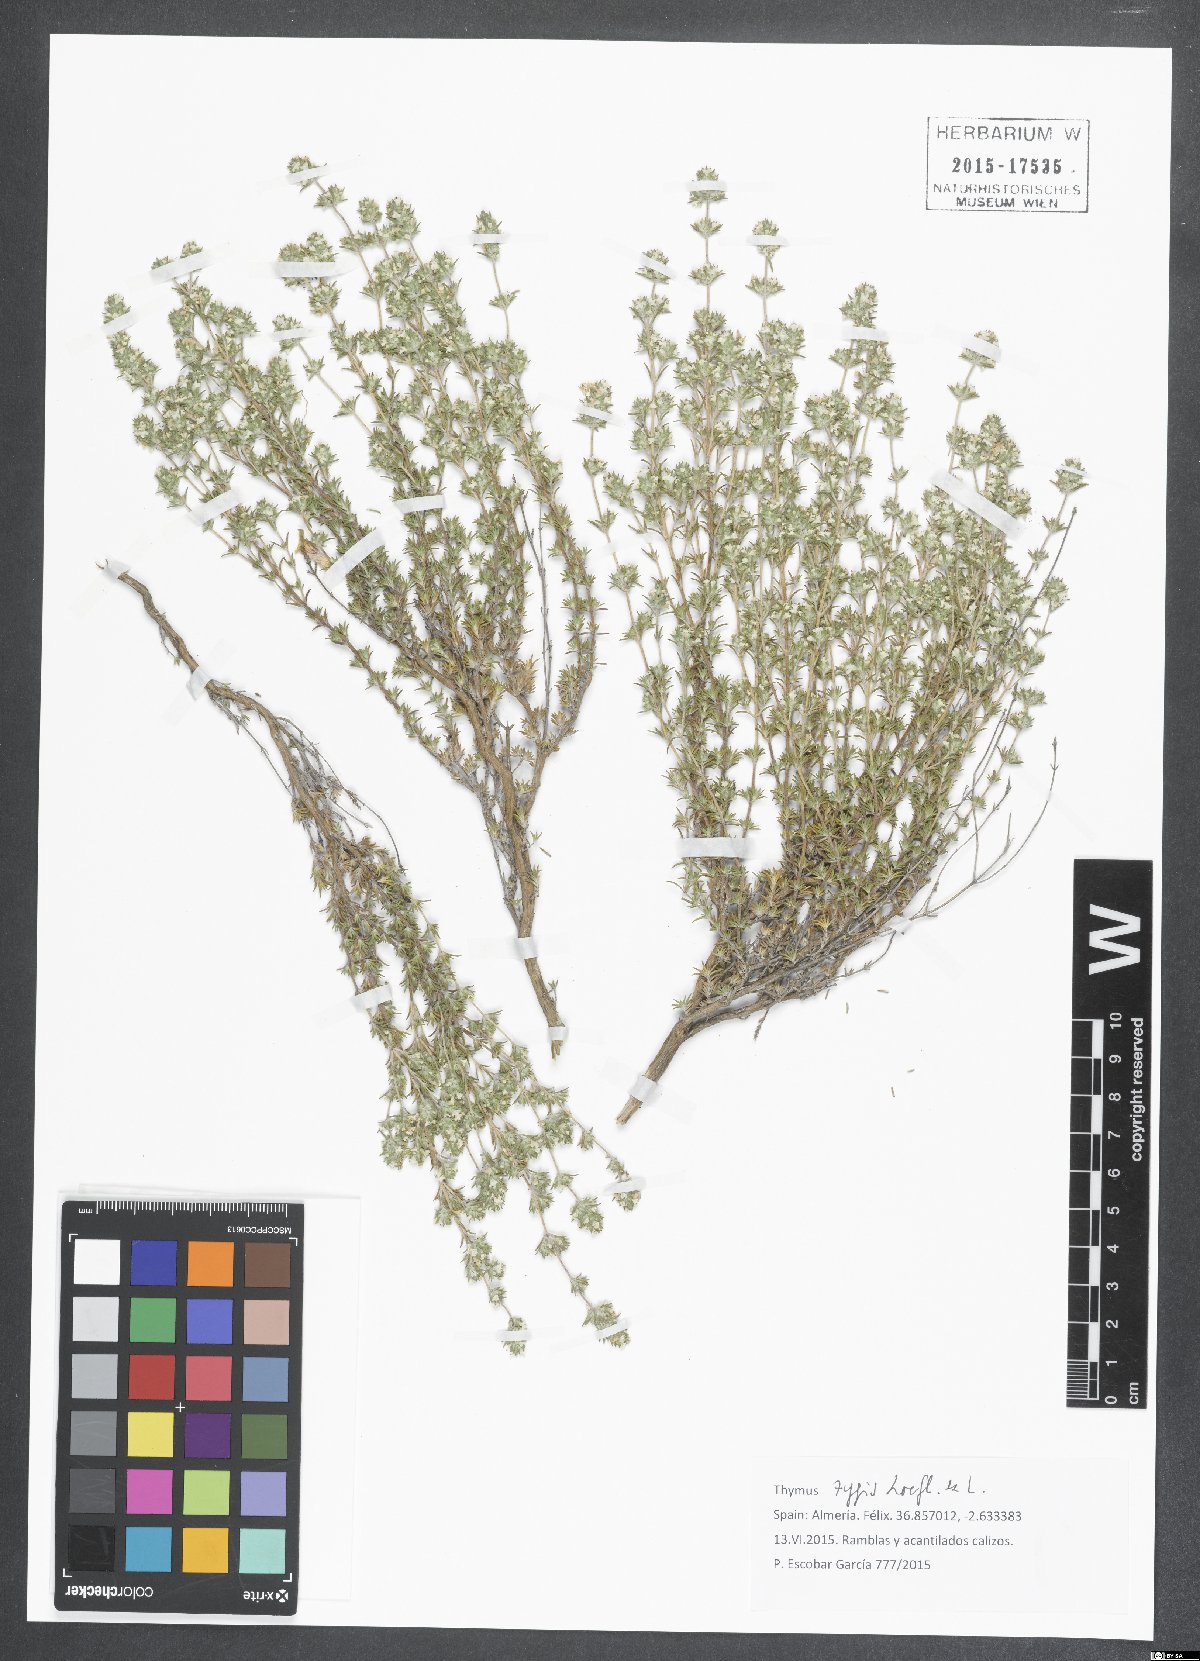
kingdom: Plantae
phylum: Tracheophyta
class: Magnoliopsida
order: Lamiales
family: Lamiaceae
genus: Thymus
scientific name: Thymus zygis
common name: White thyme
